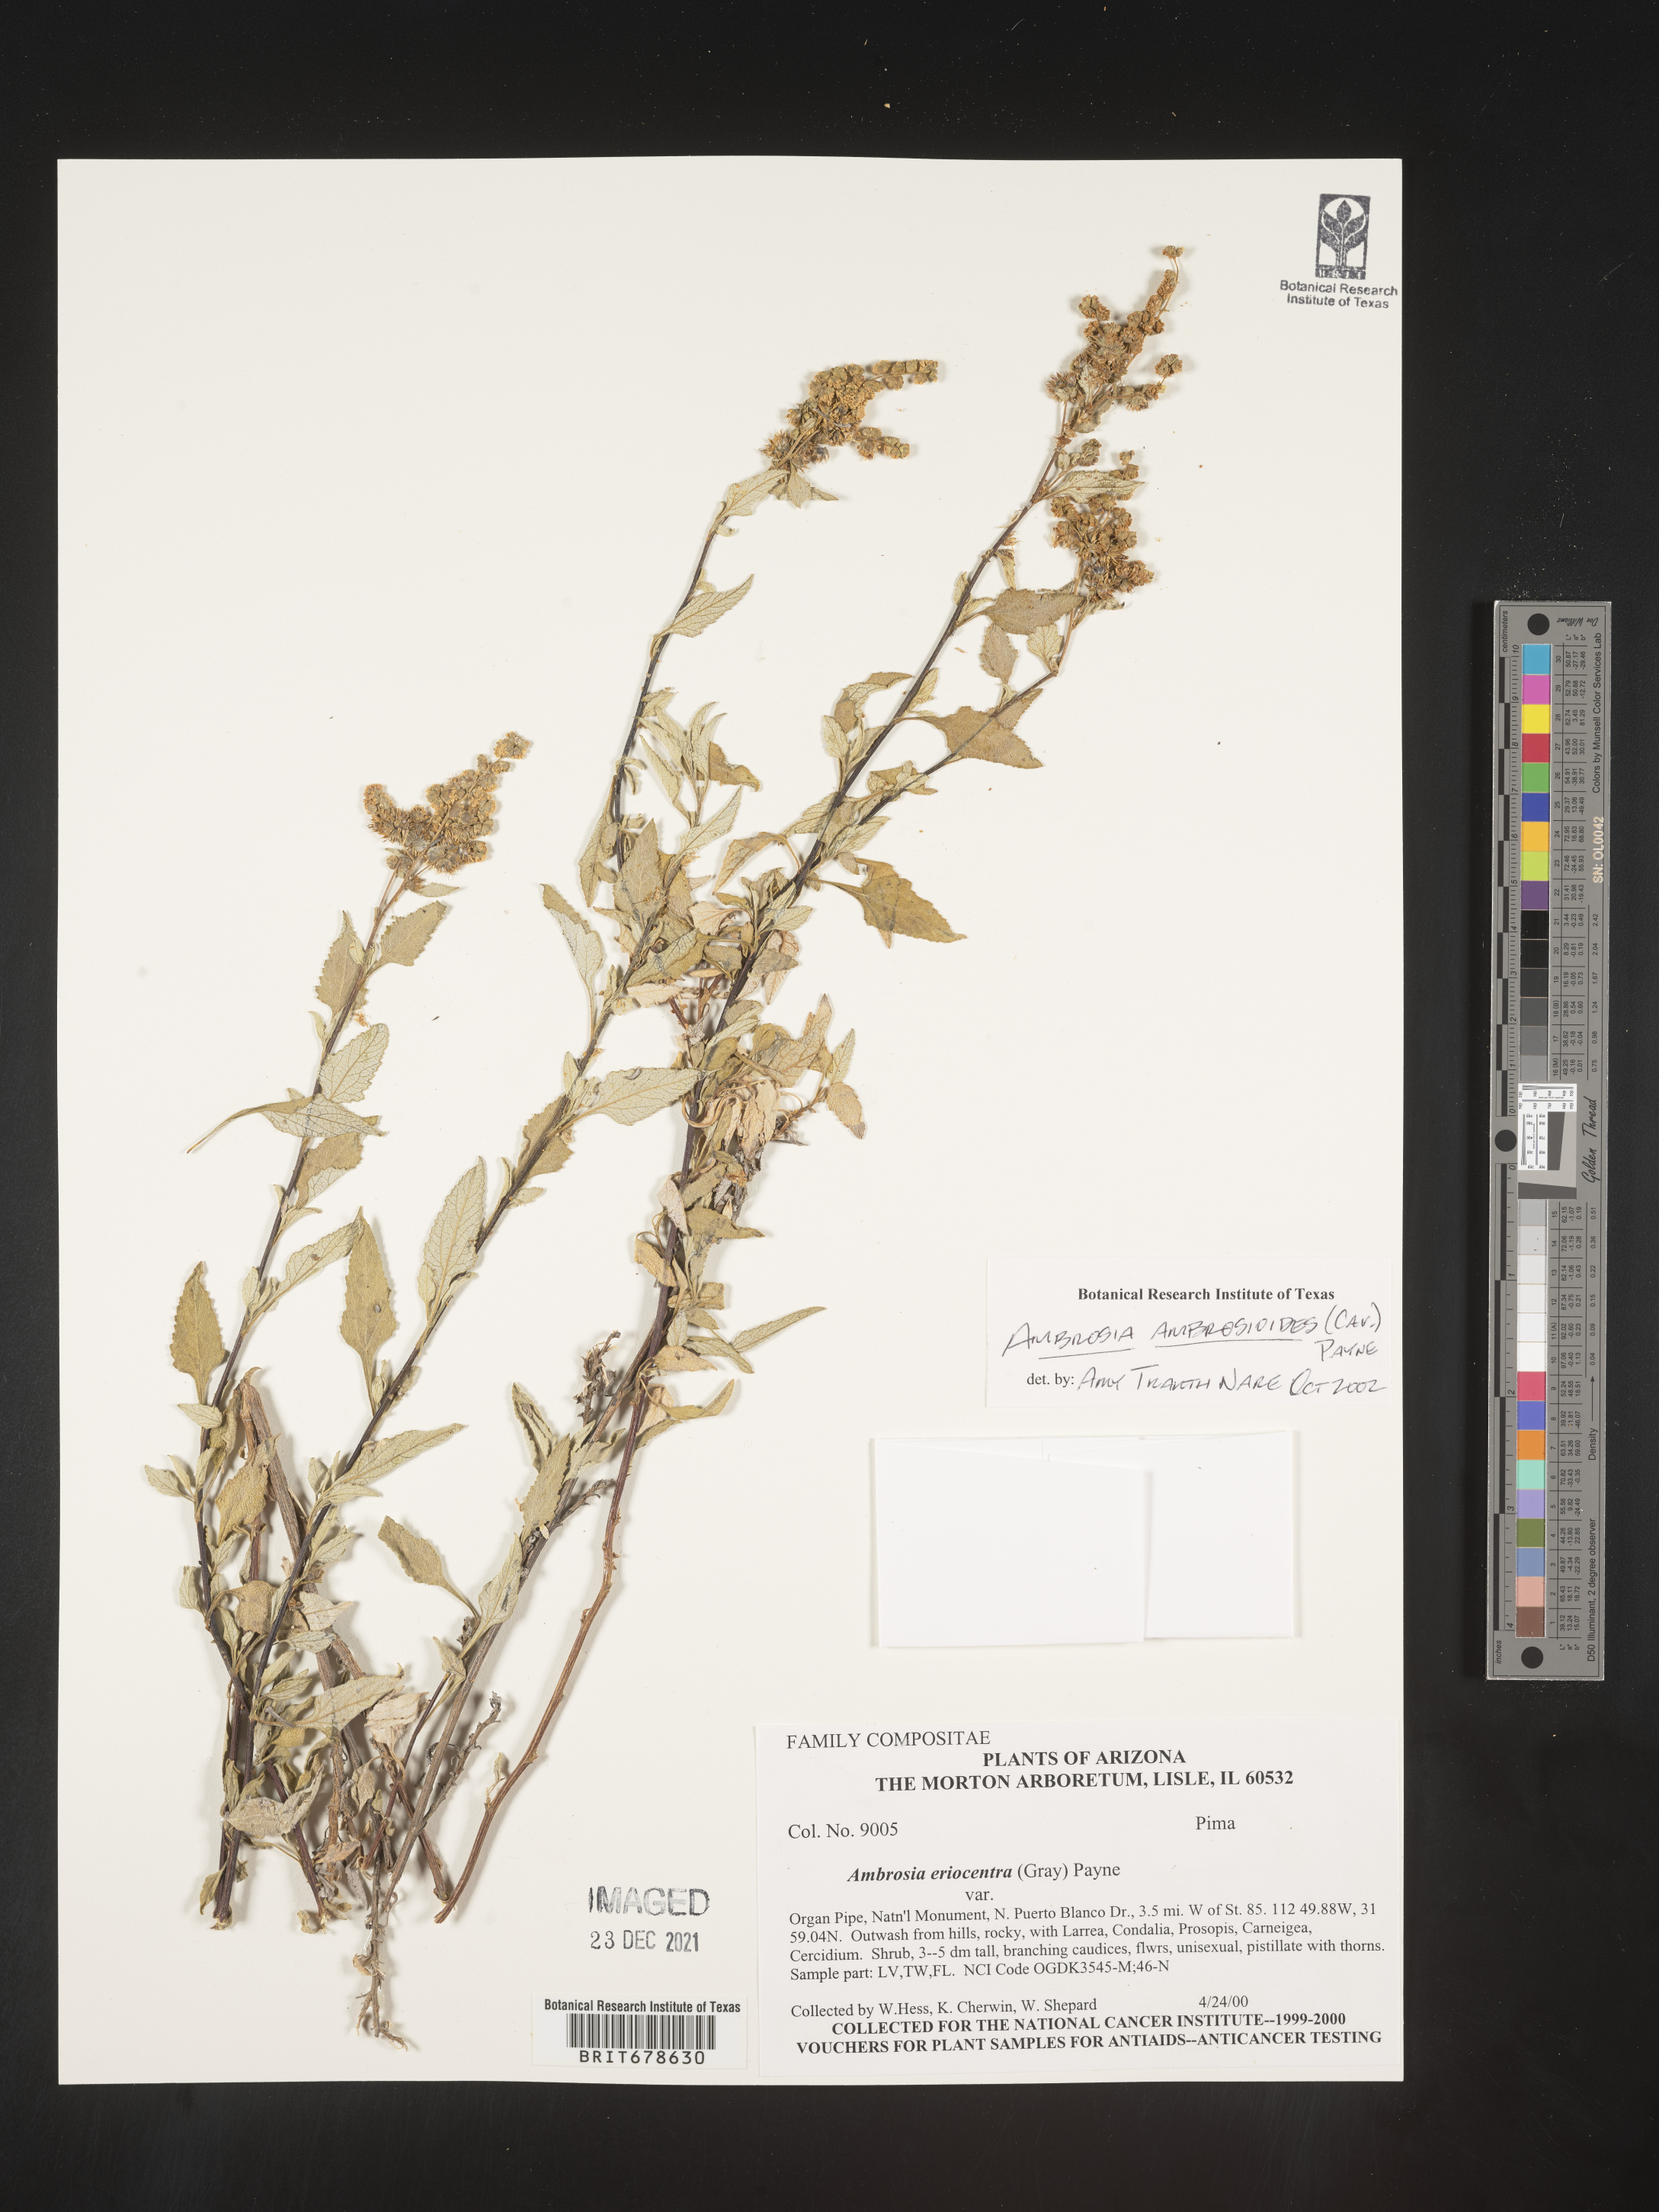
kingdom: Plantae
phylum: Tracheophyta
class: Magnoliopsida
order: Asterales
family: Asteraceae
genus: Ambrosia
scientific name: Ambrosia ambrosioides
